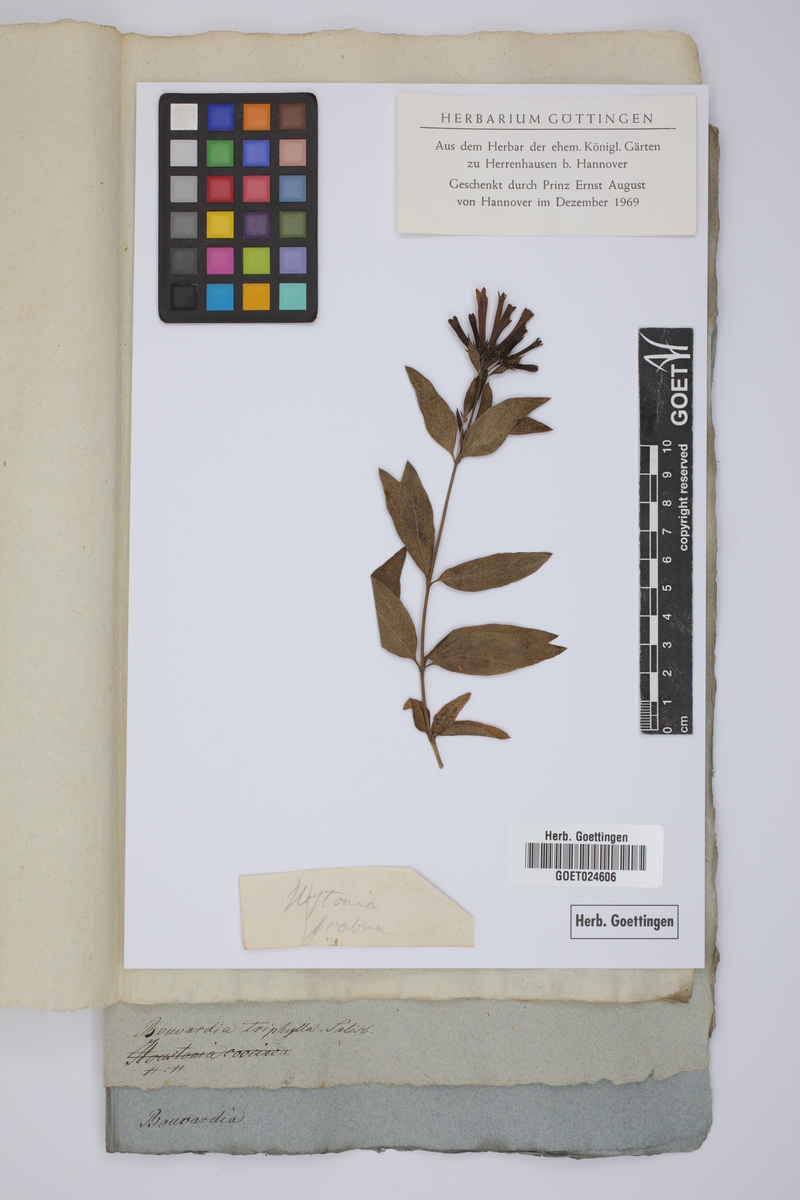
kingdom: Plantae
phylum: Tracheophyta
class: Magnoliopsida
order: Gentianales
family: Rubiaceae
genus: Bouvardia
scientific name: Bouvardia ternifolia
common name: Scarlet bouvardia
